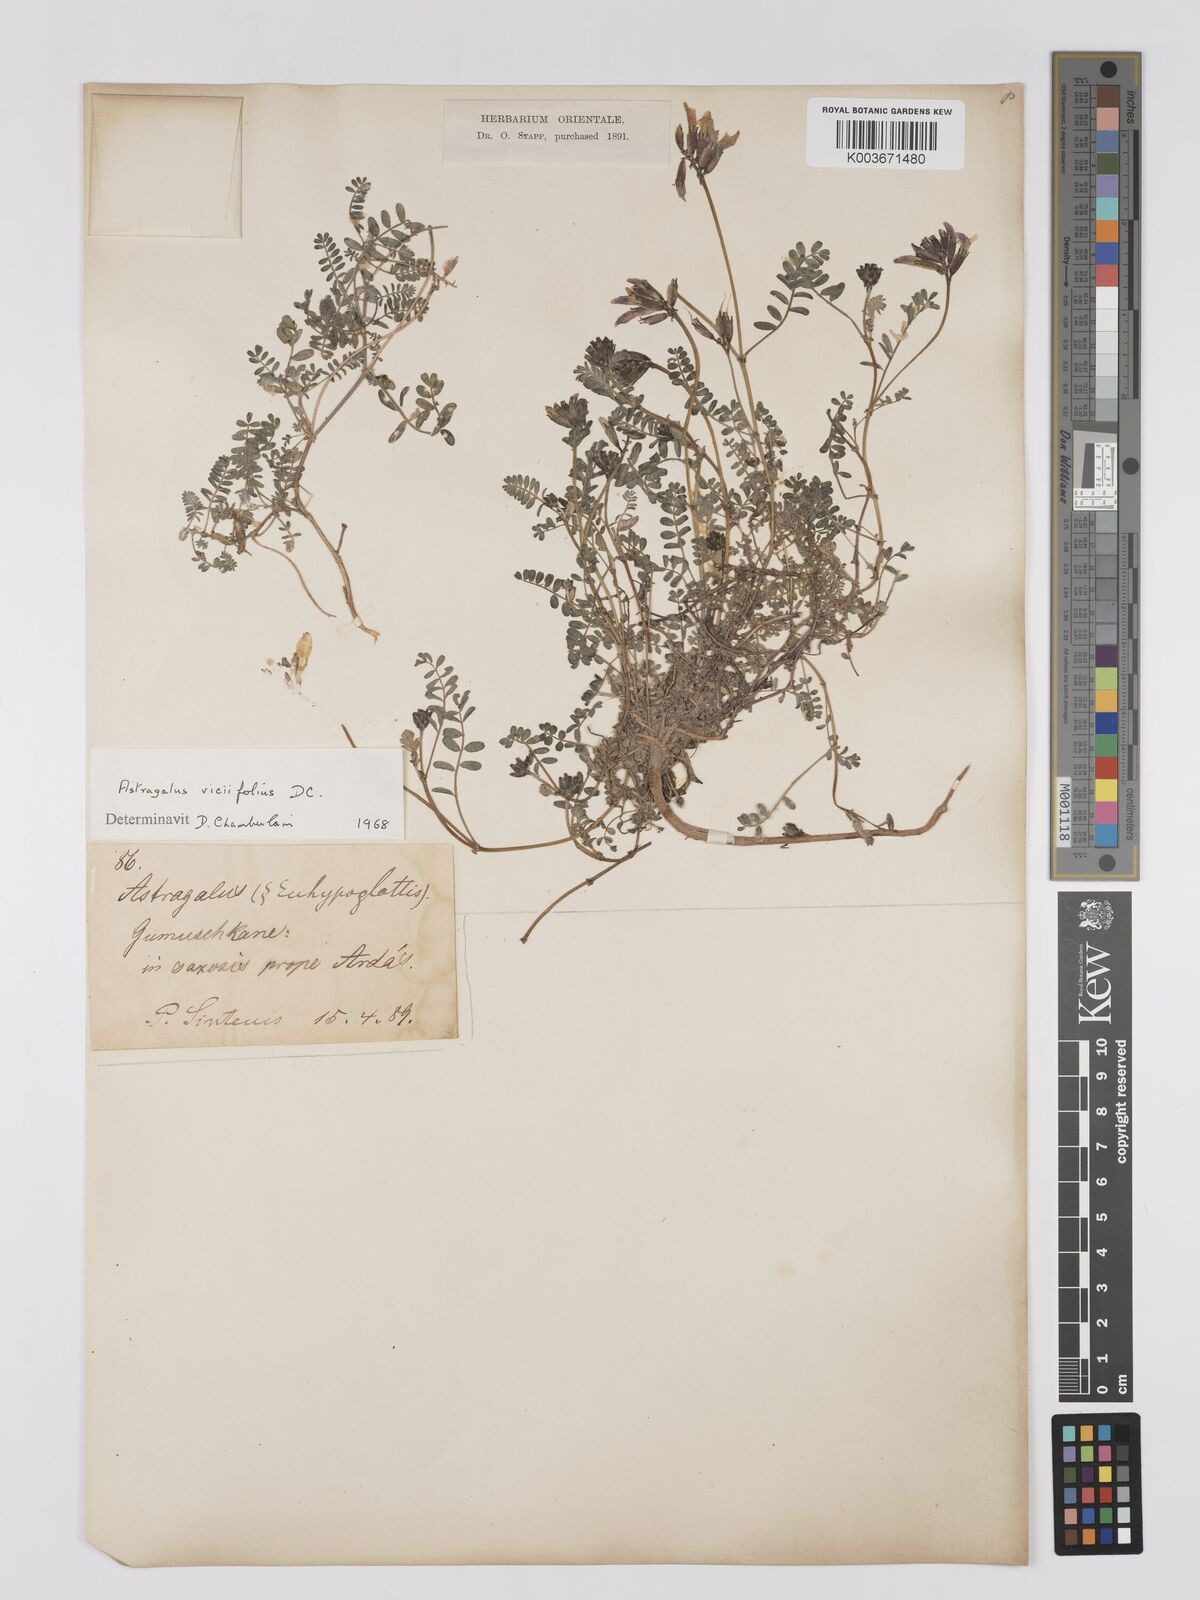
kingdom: Plantae
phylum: Tracheophyta
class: Magnoliopsida
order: Fabales
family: Fabaceae
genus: Astragalus
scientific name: Astragalus humifusus
